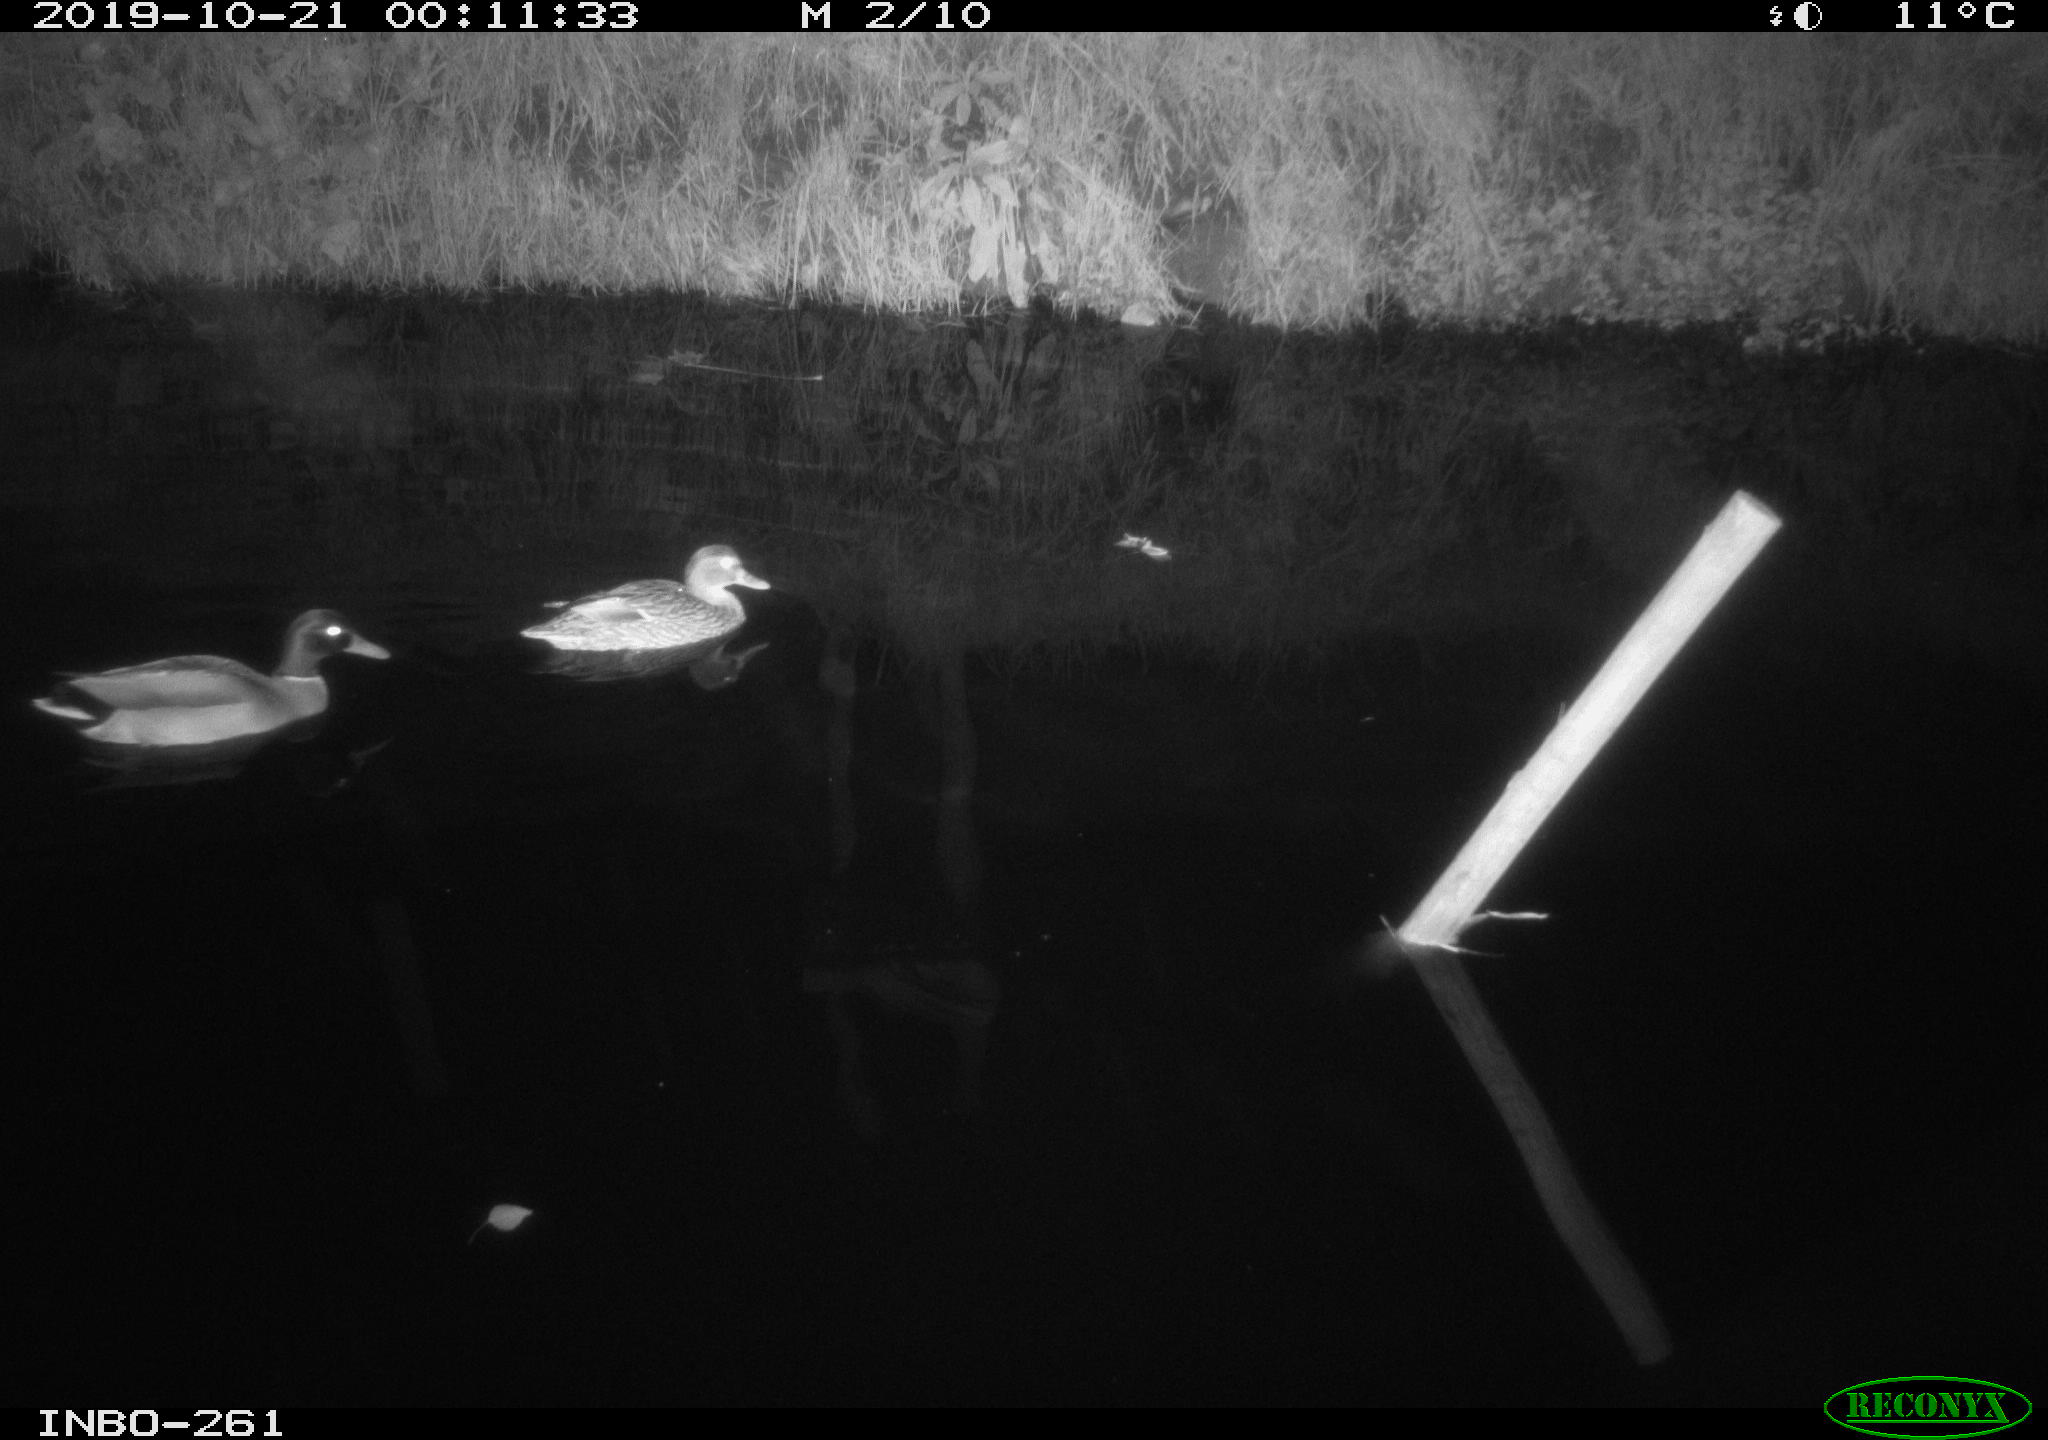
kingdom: Animalia
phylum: Chordata
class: Aves
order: Anseriformes
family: Anatidae
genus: Anas
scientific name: Anas platyrhynchos
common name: Mallard
